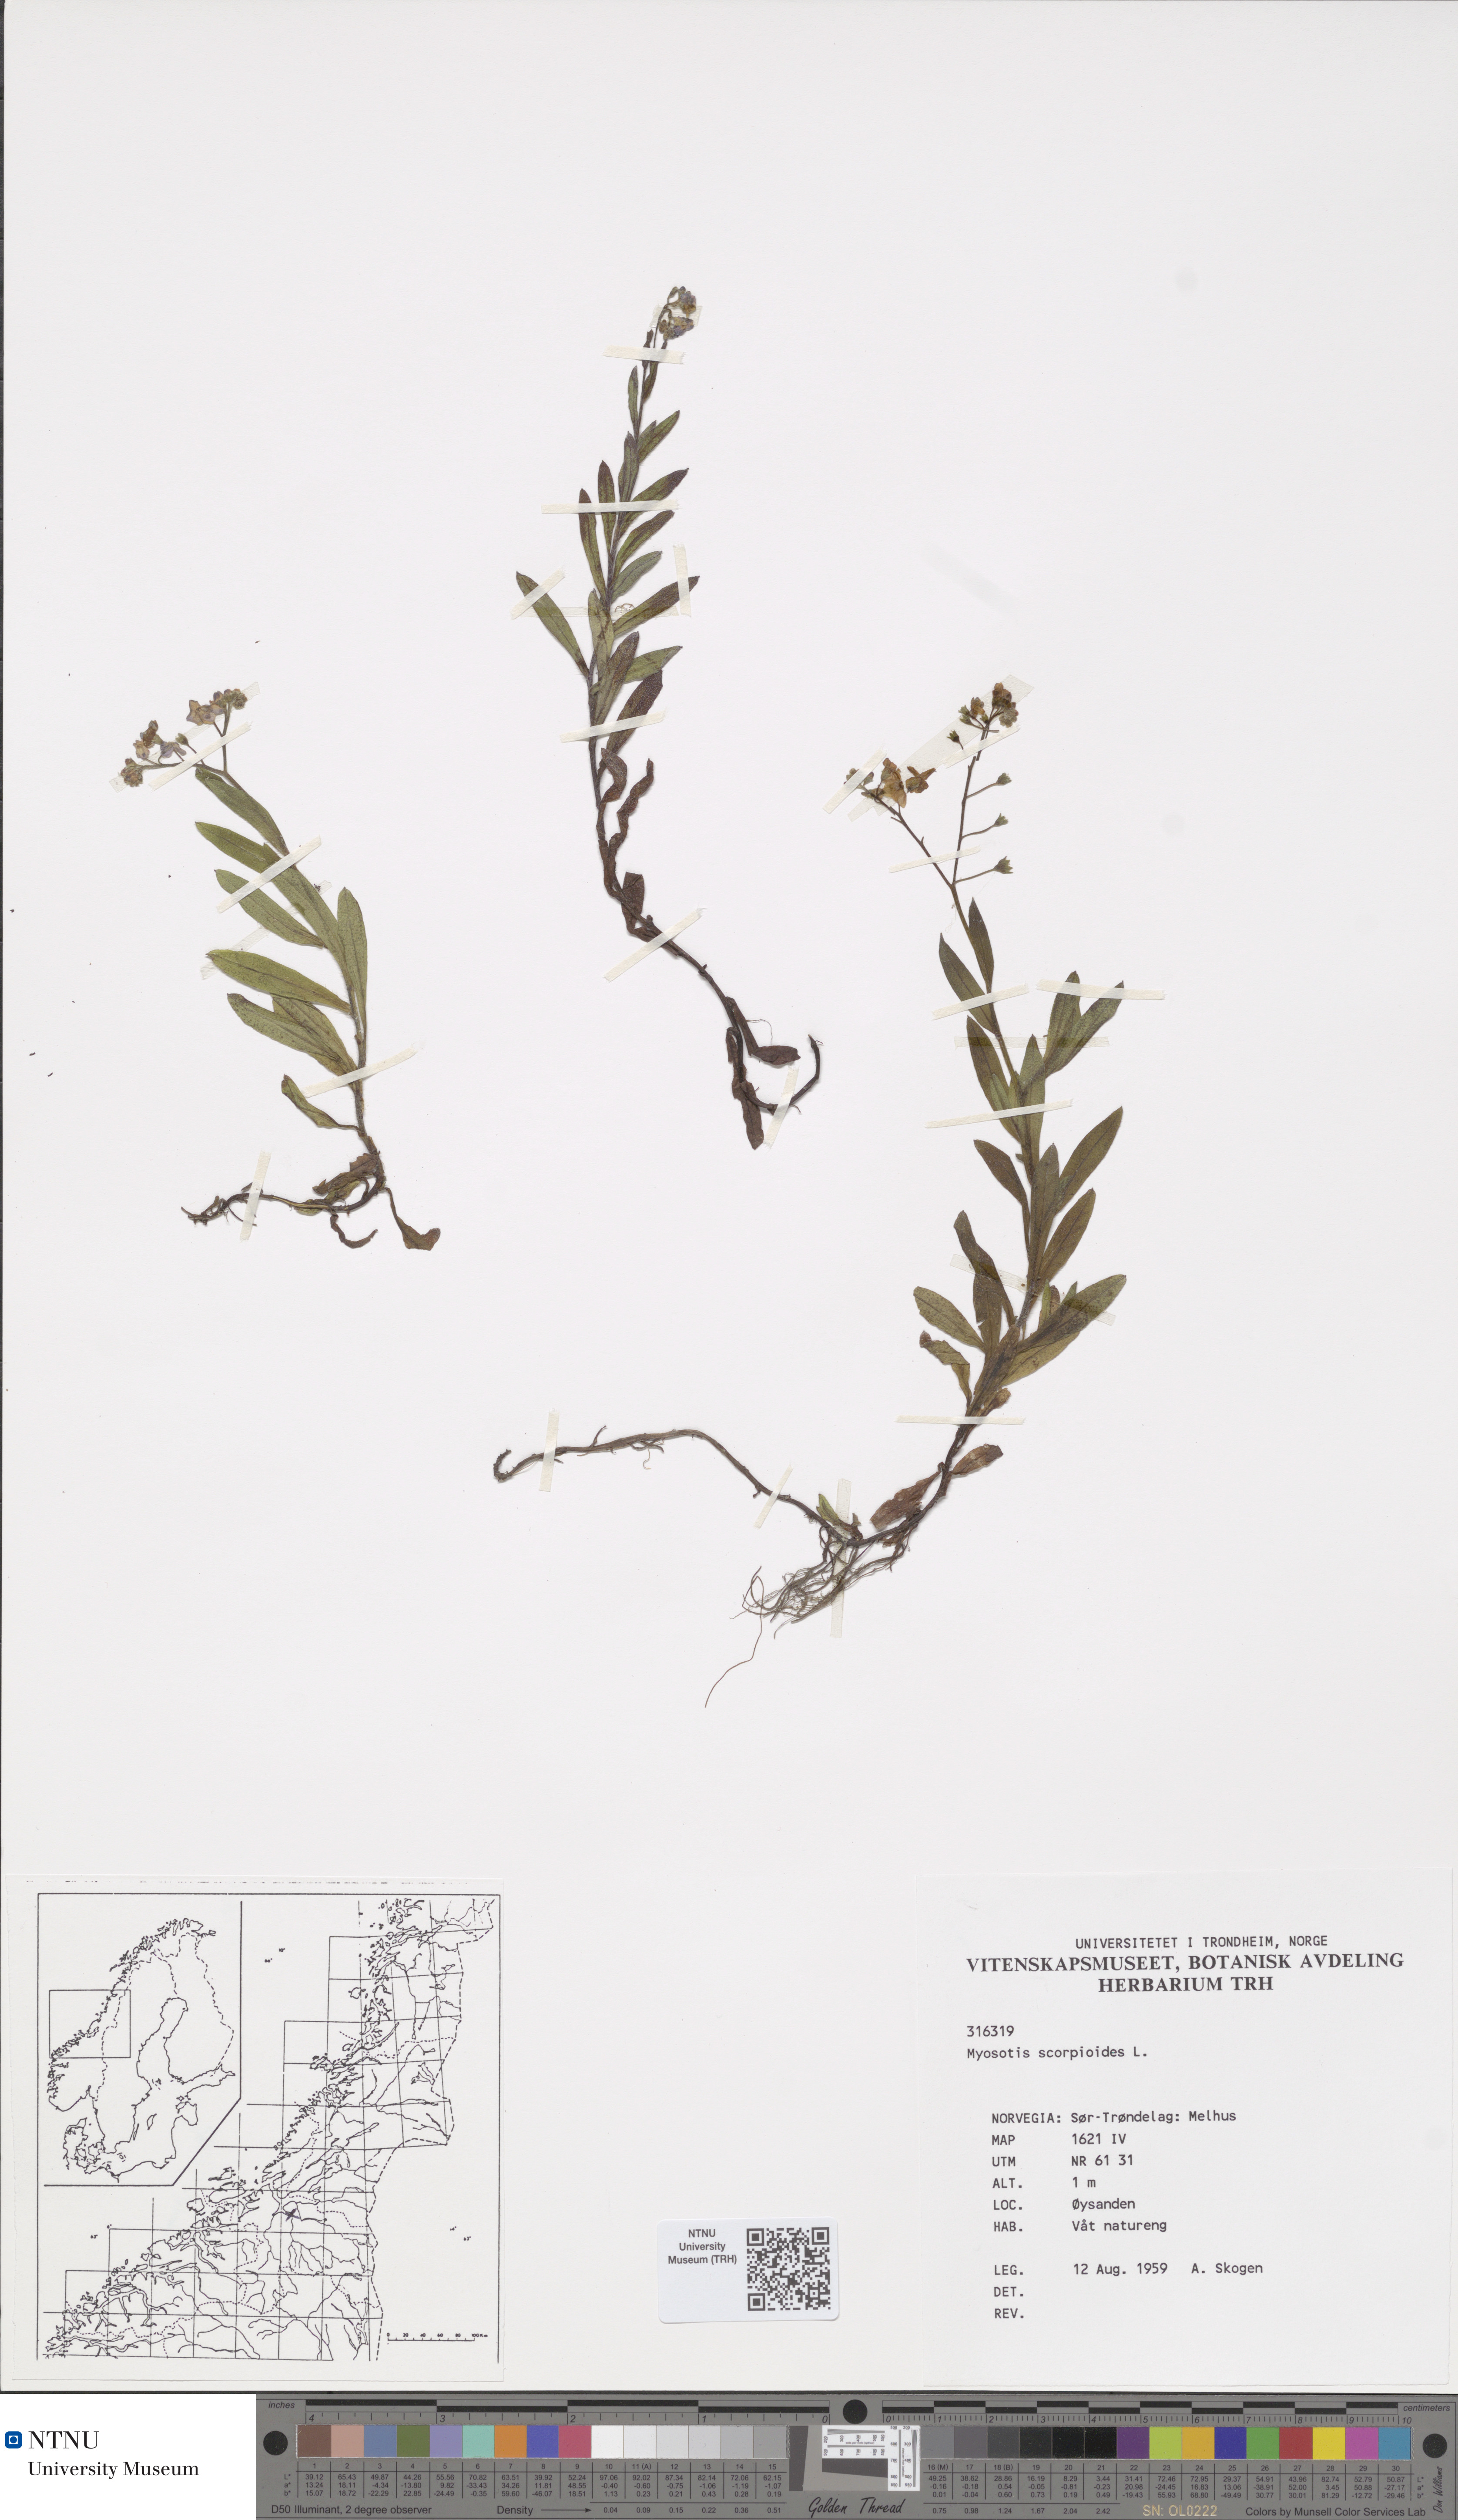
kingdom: Plantae
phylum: Tracheophyta
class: Magnoliopsida
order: Boraginales
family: Boraginaceae
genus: Myosotis
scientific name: Myosotis scorpioides
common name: Water forget-me-not
